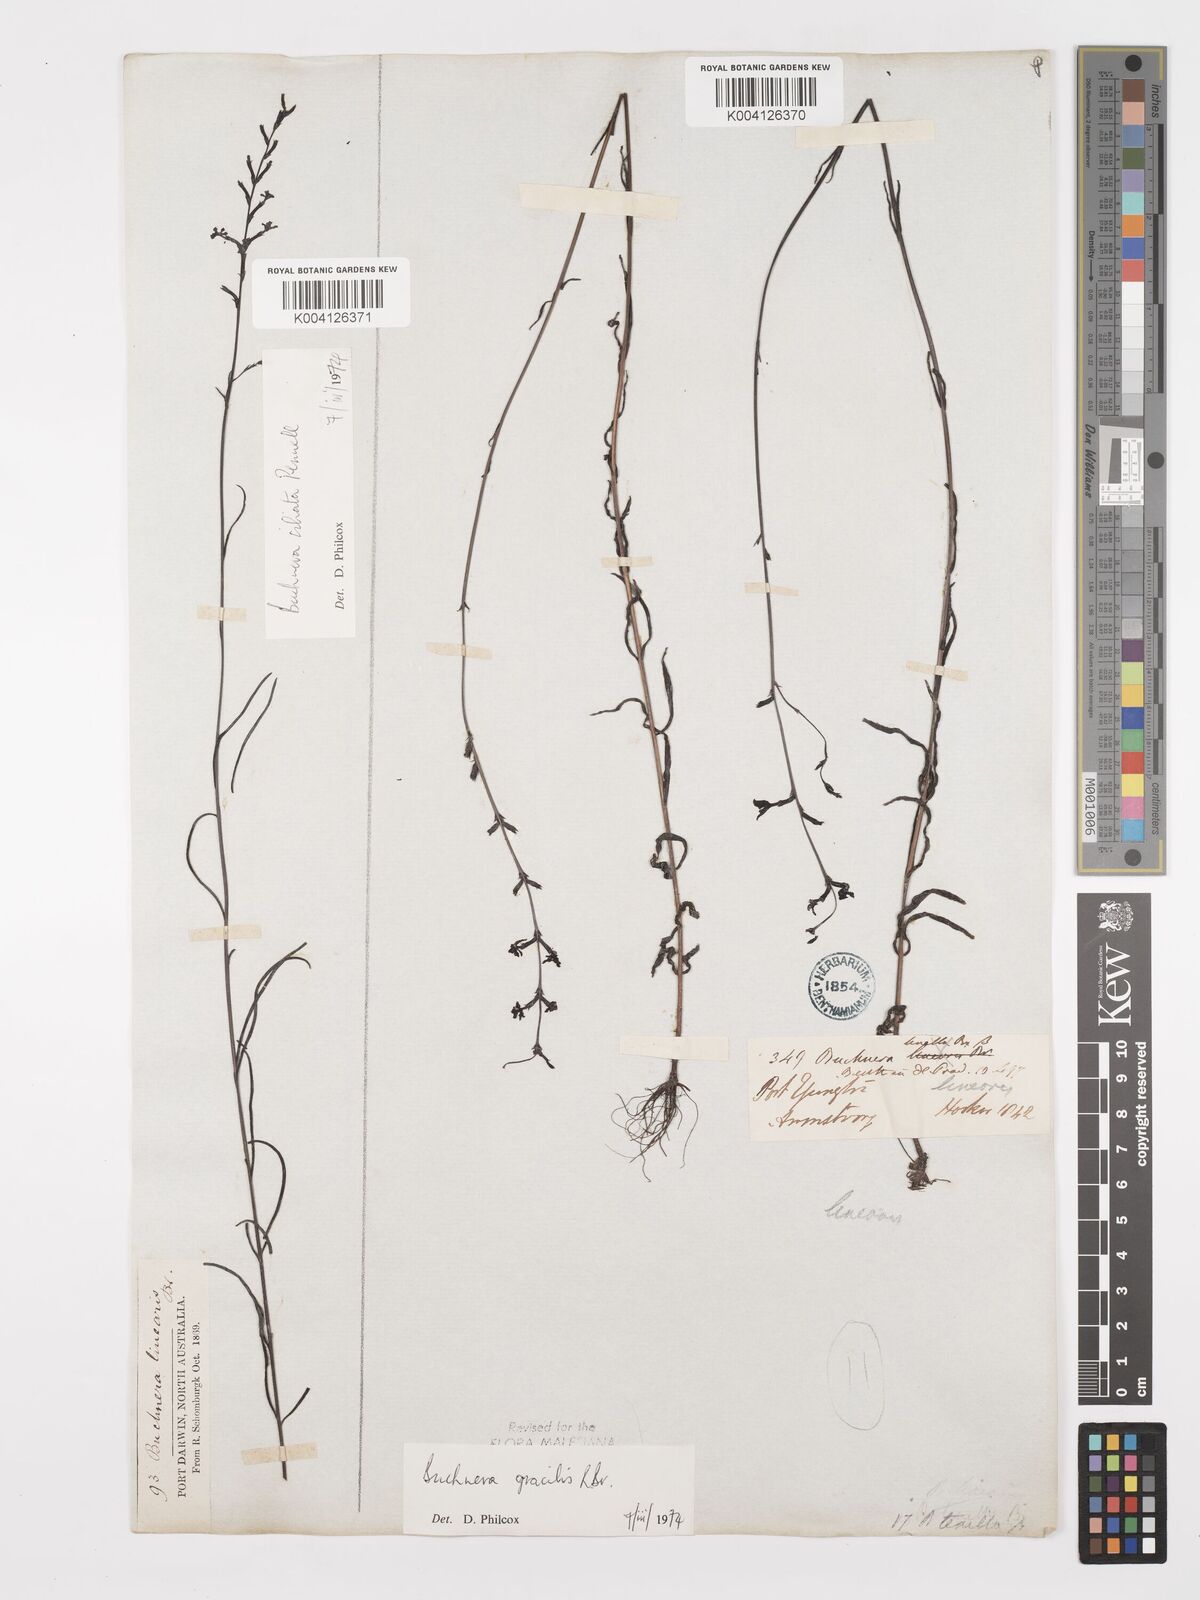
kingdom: Plantae
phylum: Tracheophyta
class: Magnoliopsida
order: Lamiales
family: Orobanchaceae
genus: Buchnera
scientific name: Buchnera gracilis
